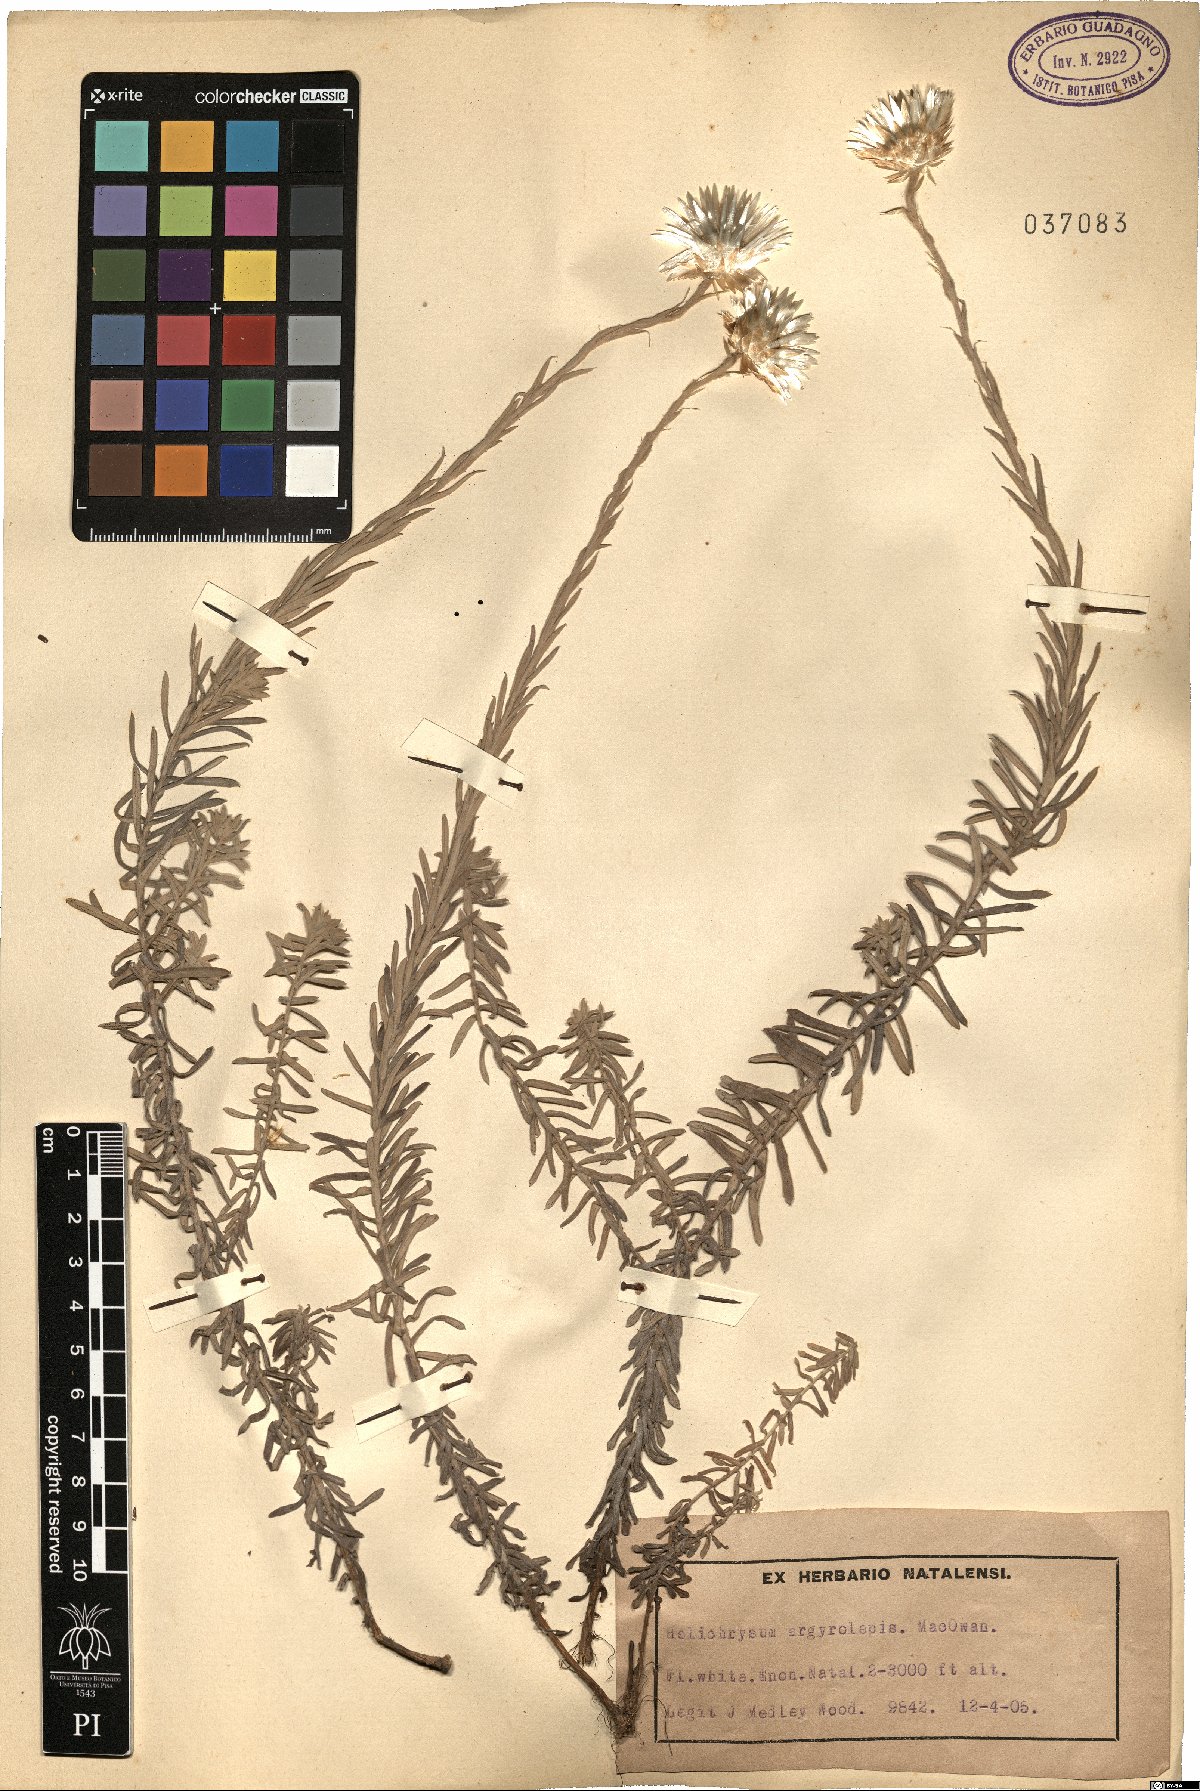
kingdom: Plantae
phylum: Tracheophyta
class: Magnoliopsida
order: Asterales
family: Asteraceae
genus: Helichrysum
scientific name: Helichrysum argyrolepis
